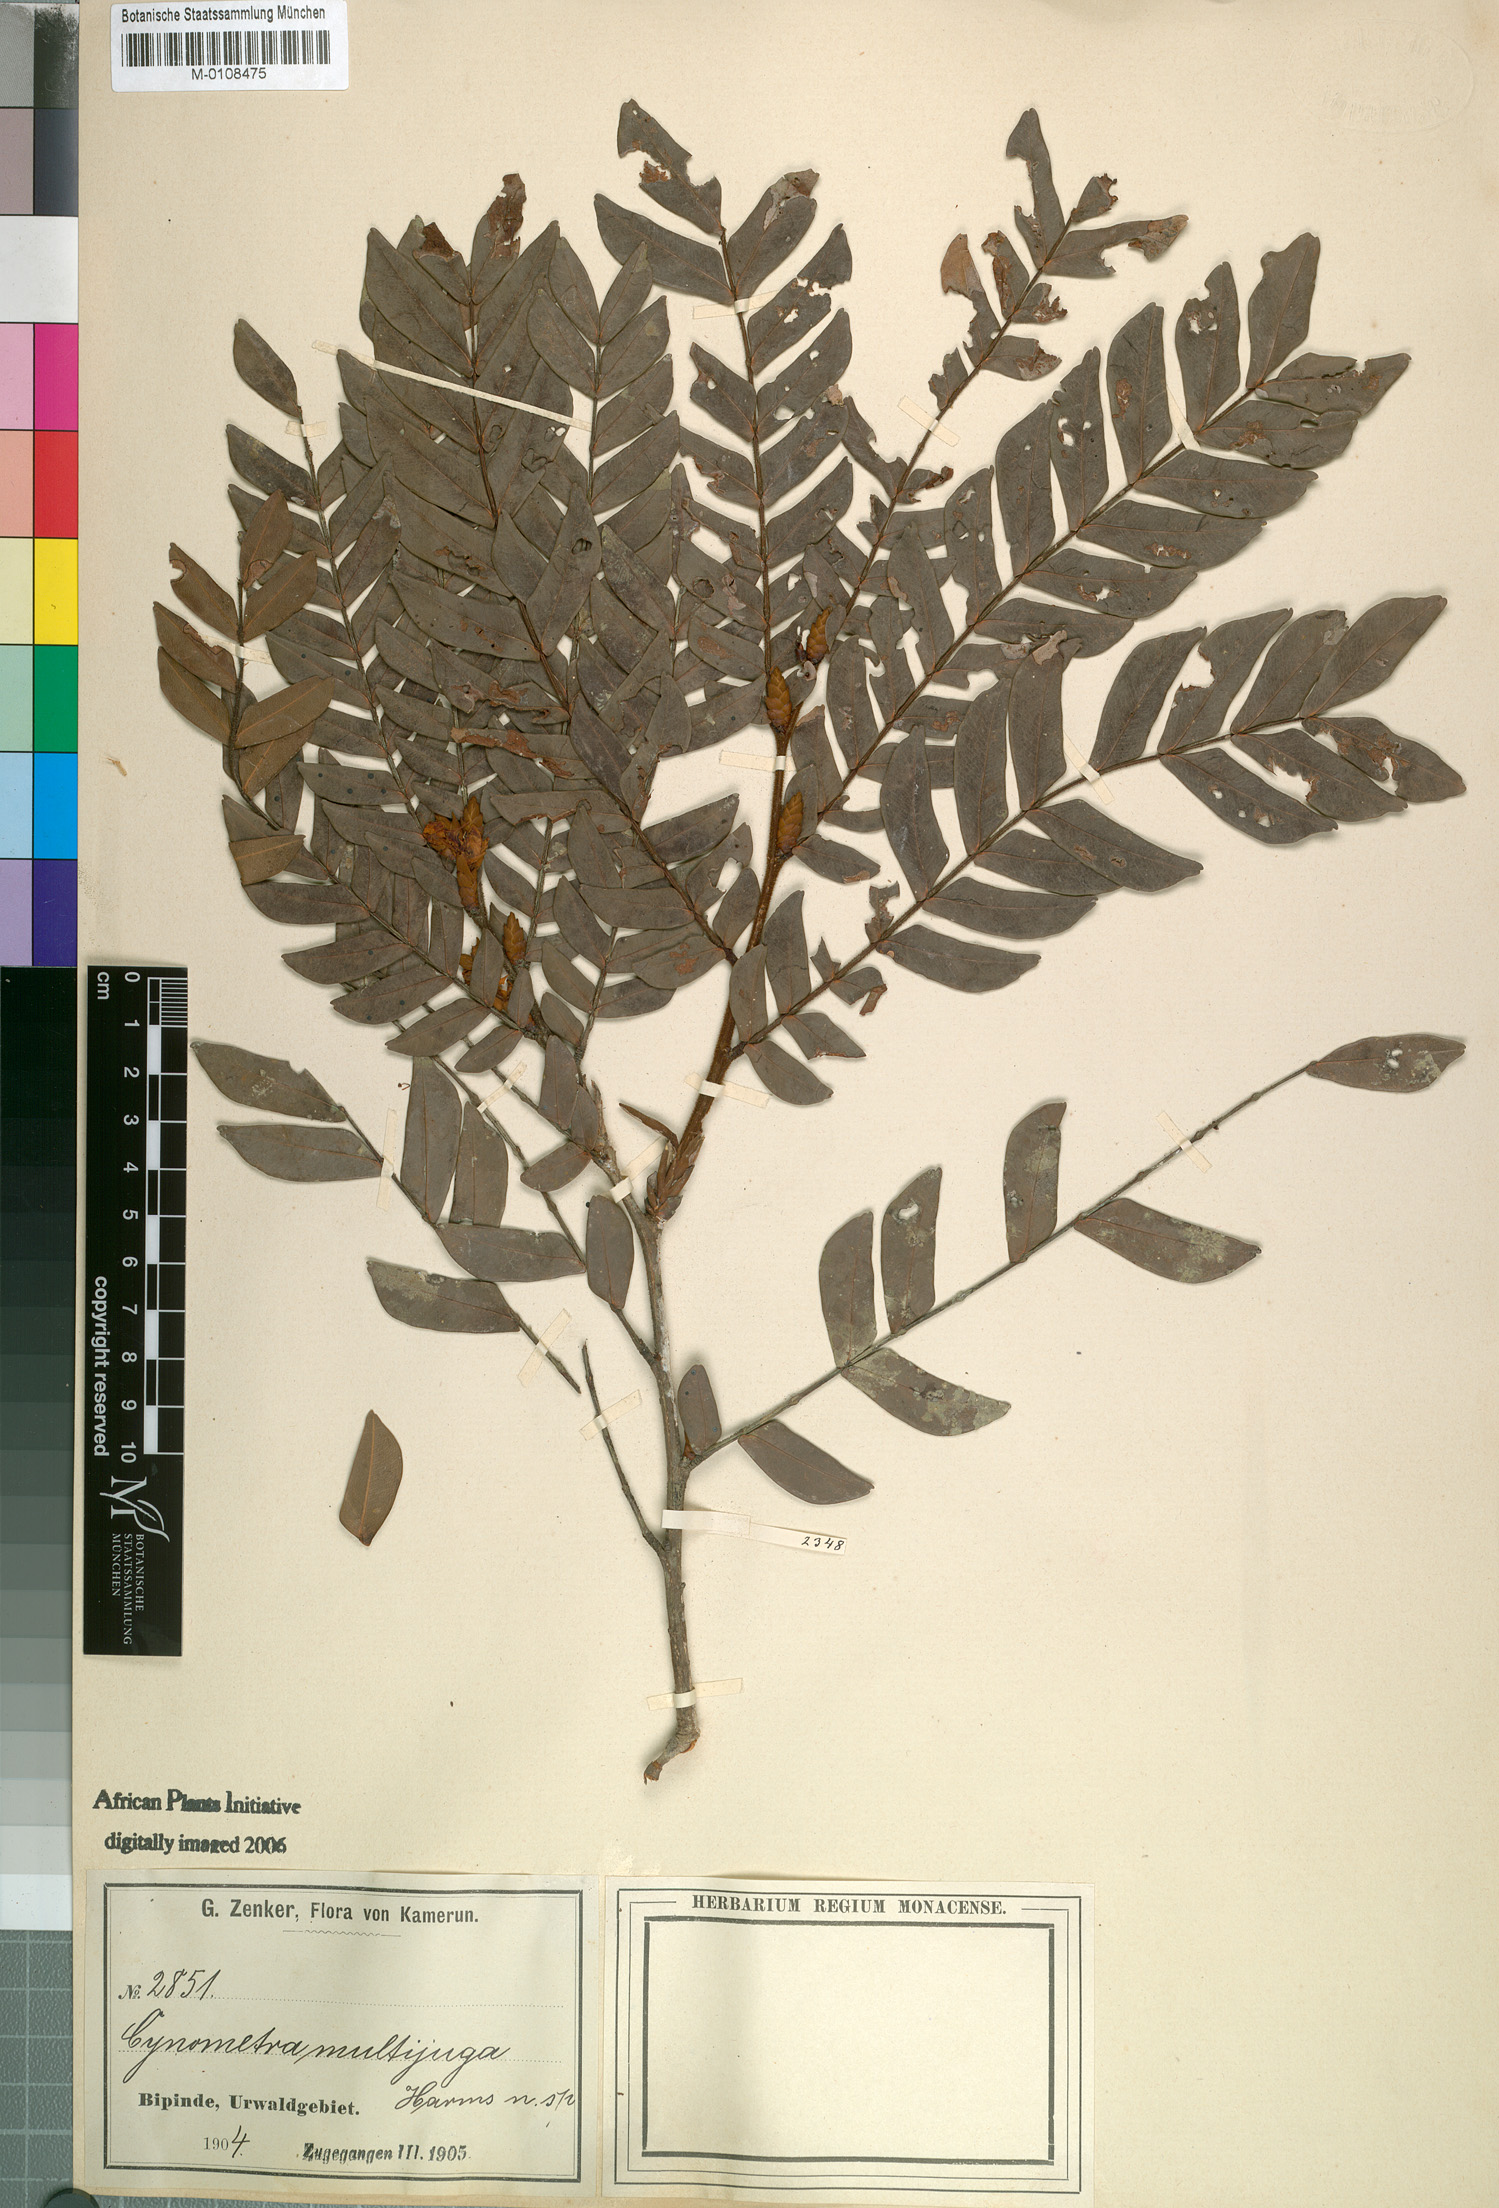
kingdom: Plantae
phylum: Tracheophyta
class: Magnoliopsida
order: Fabales
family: Fabaceae
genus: Plagiosiphon
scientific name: Plagiosiphon multijugus
